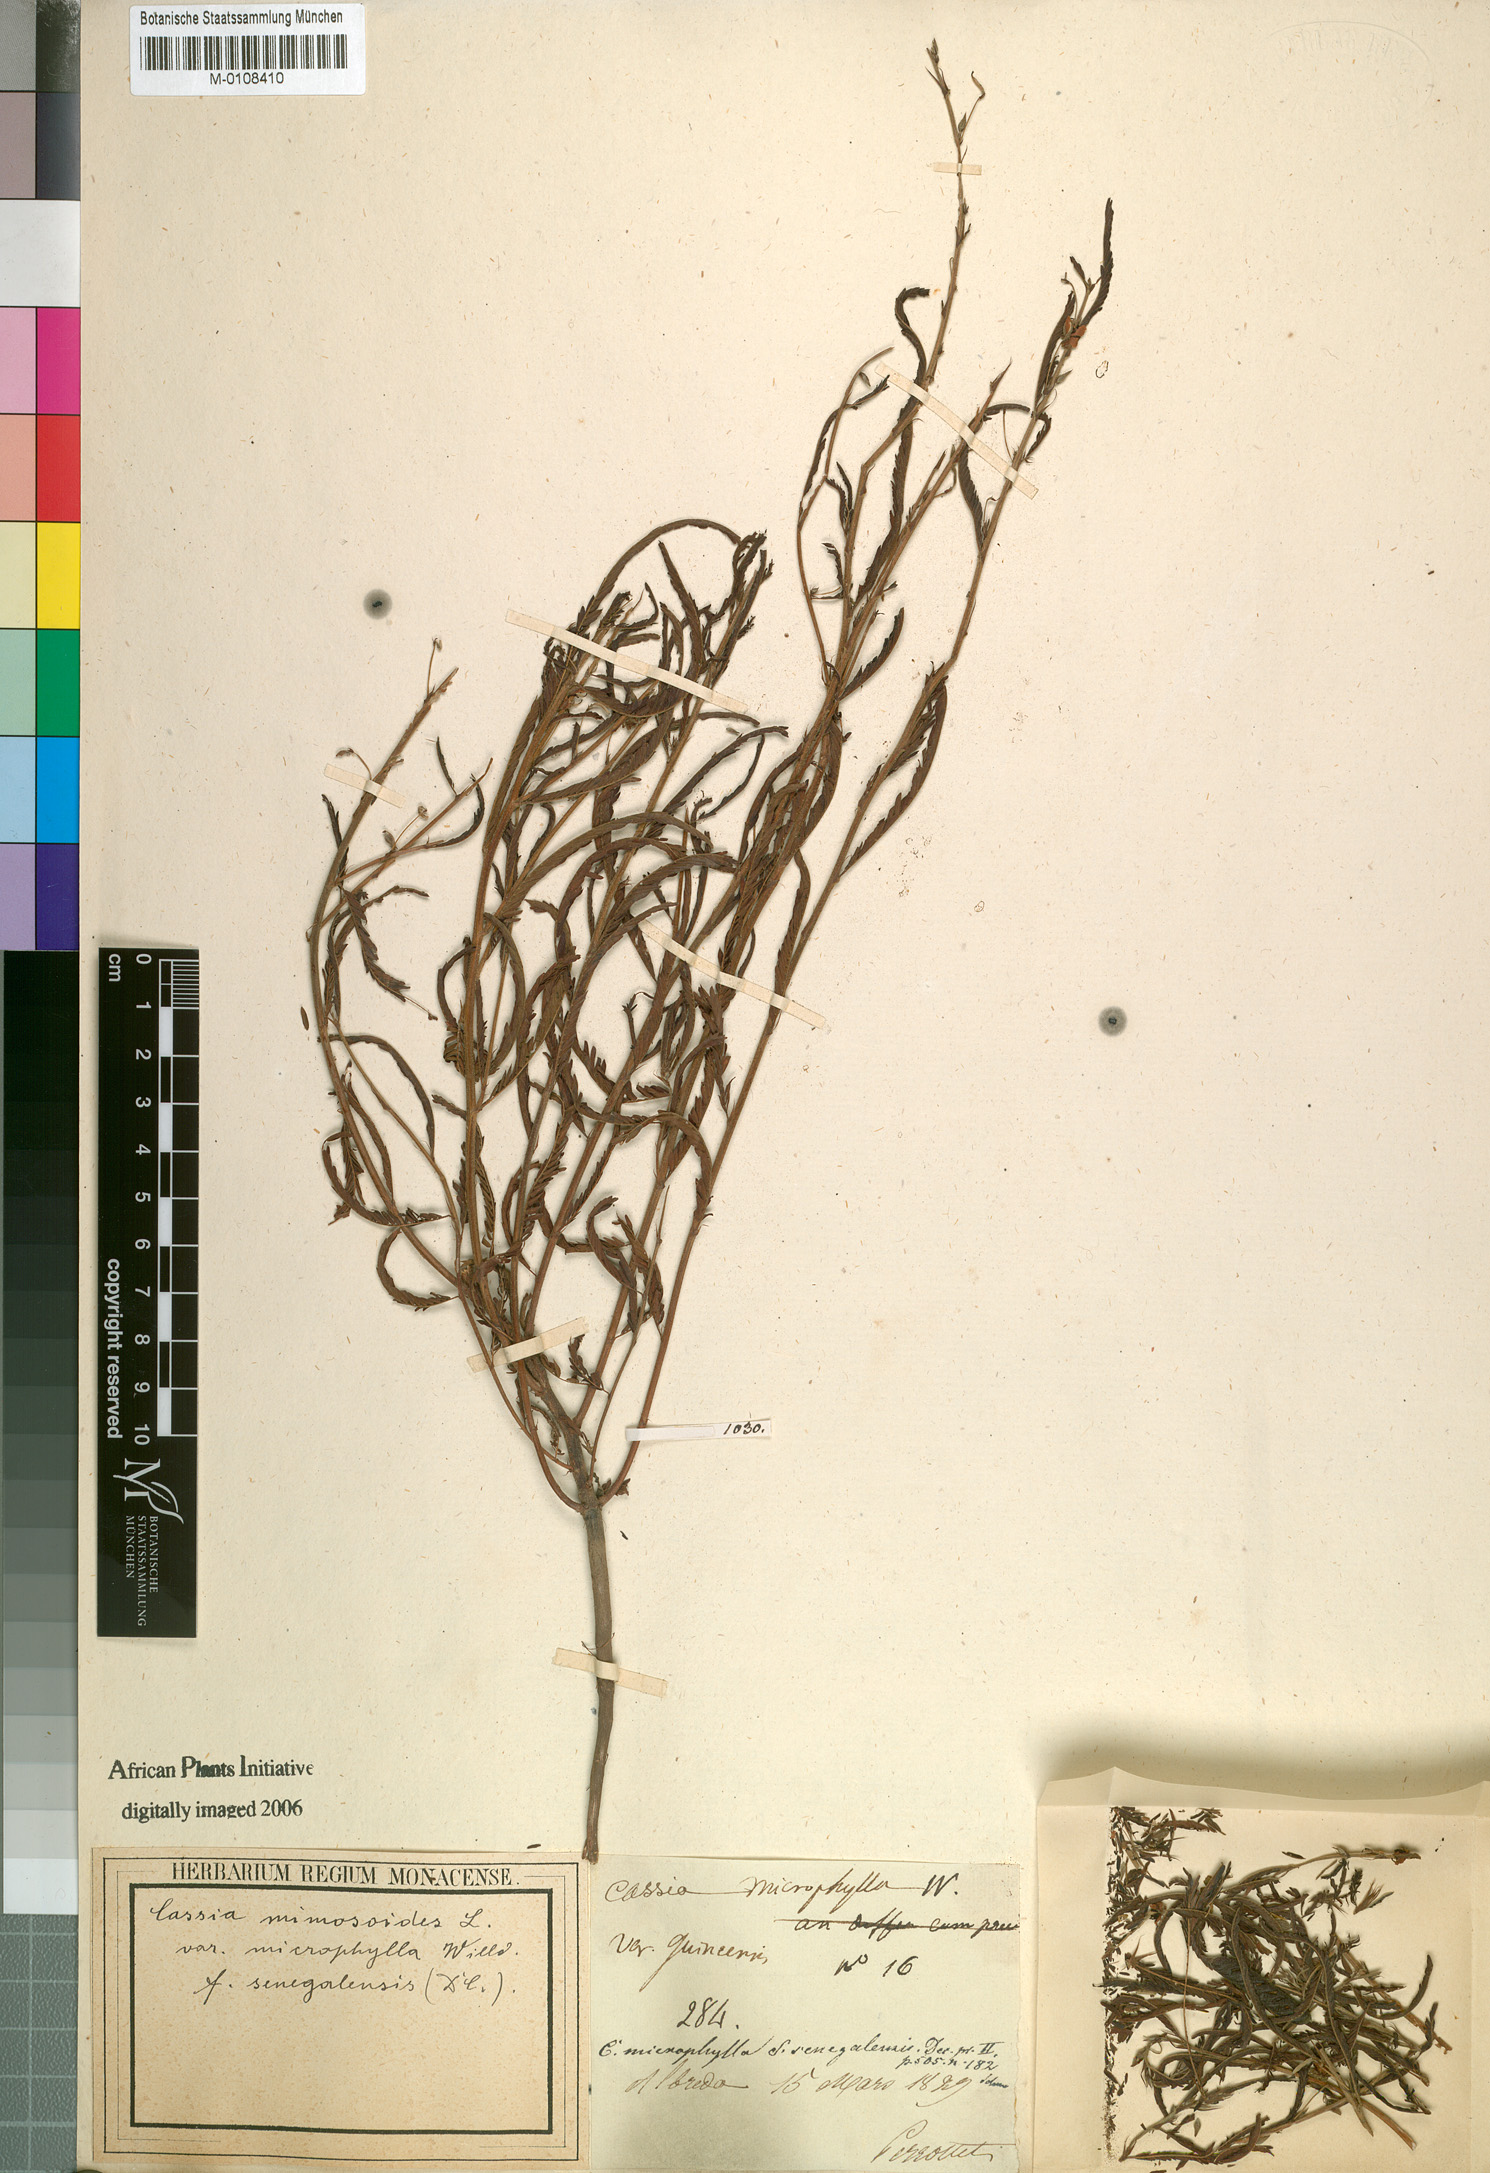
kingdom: Plantae
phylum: Tracheophyta
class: Magnoliopsida
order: Fabales
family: Fabaceae
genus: Chamaecrista
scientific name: Chamaecrista mimosoides
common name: Fish-bone cassia
